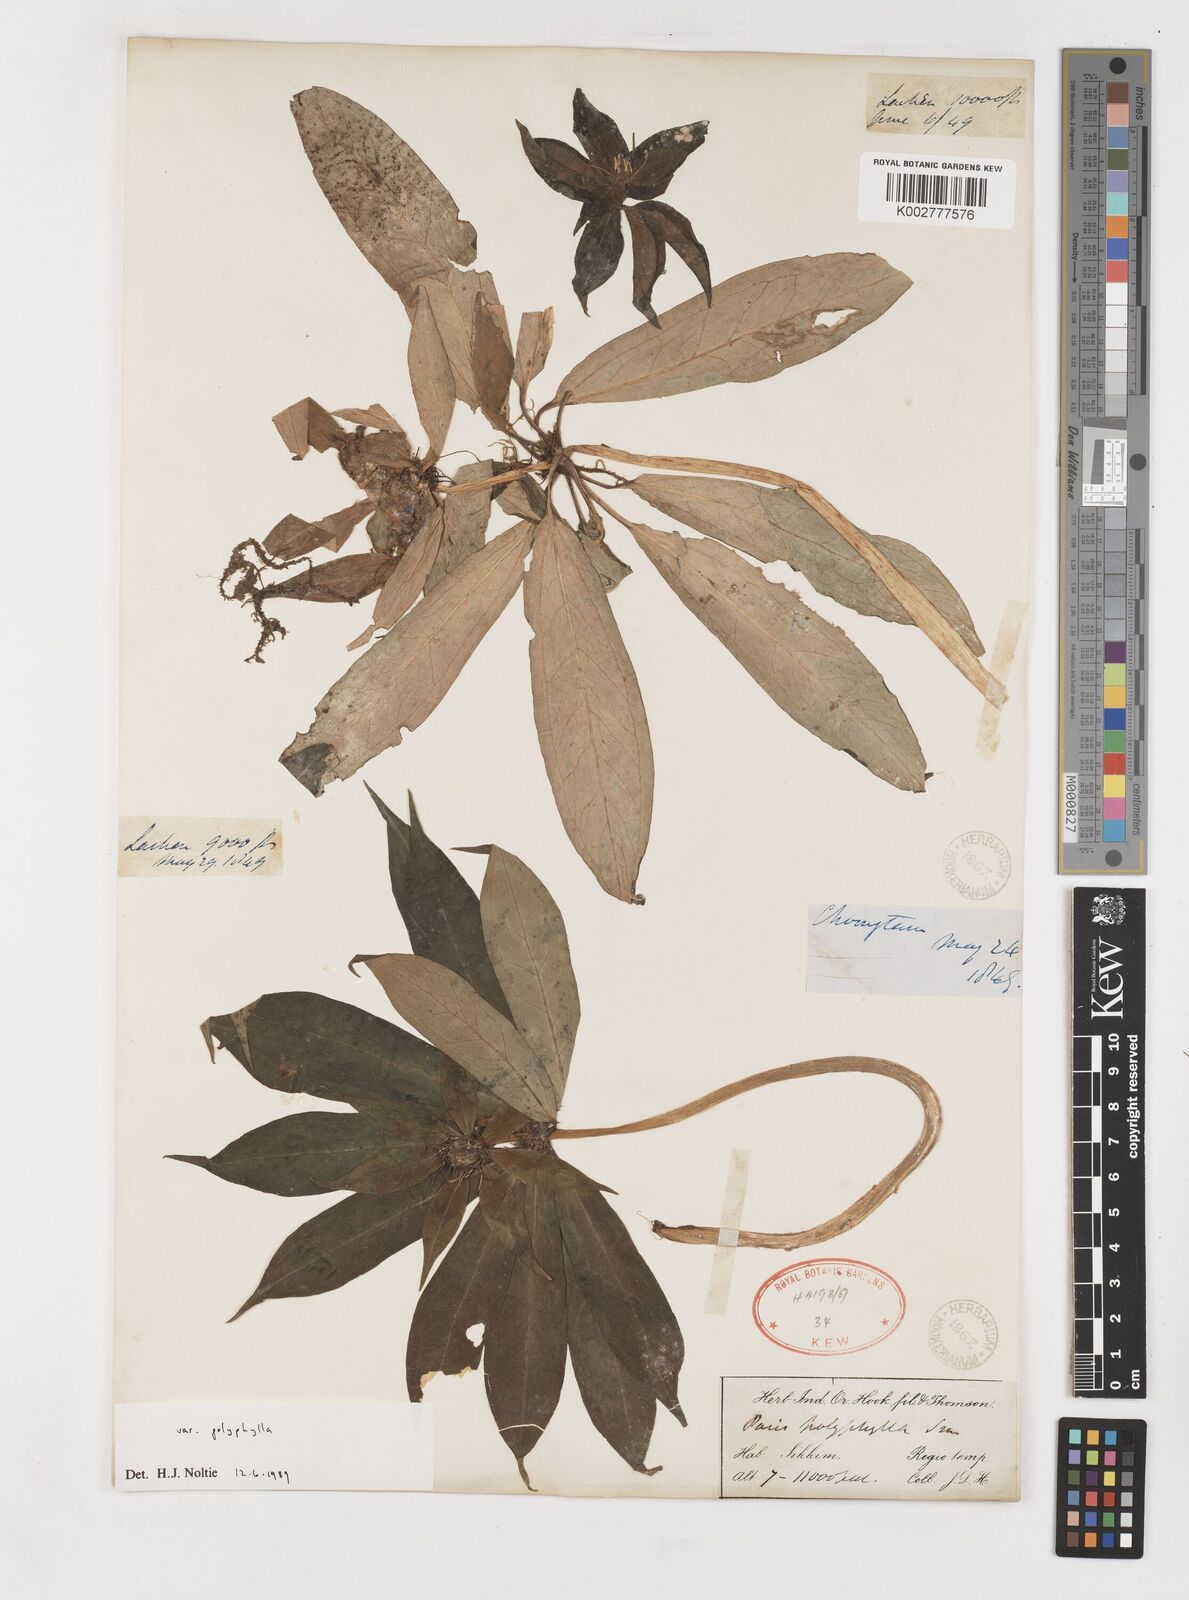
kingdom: Plantae
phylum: Tracheophyta
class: Liliopsida
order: Liliales
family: Melanthiaceae
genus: Paris
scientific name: Paris delavayi
